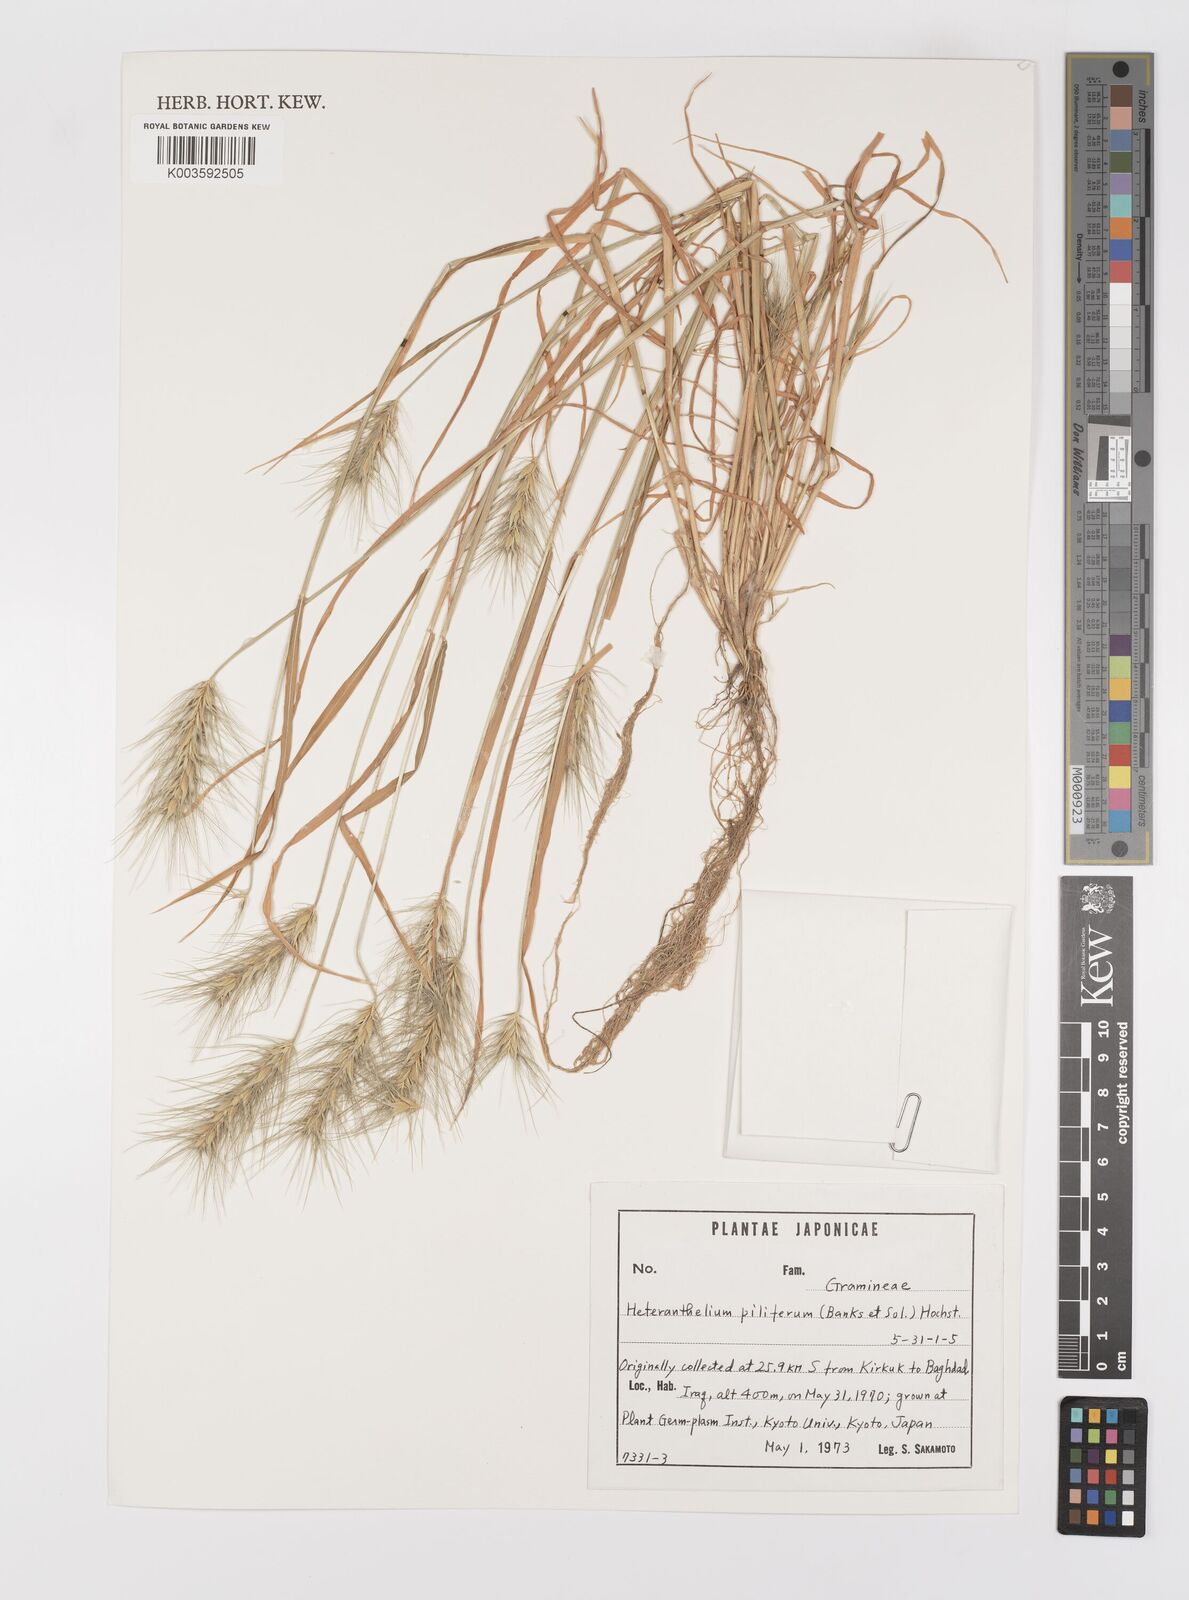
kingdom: Plantae
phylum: Tracheophyta
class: Liliopsida
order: Poales
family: Poaceae
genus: Heteranthelium
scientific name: Heteranthelium piliferum
